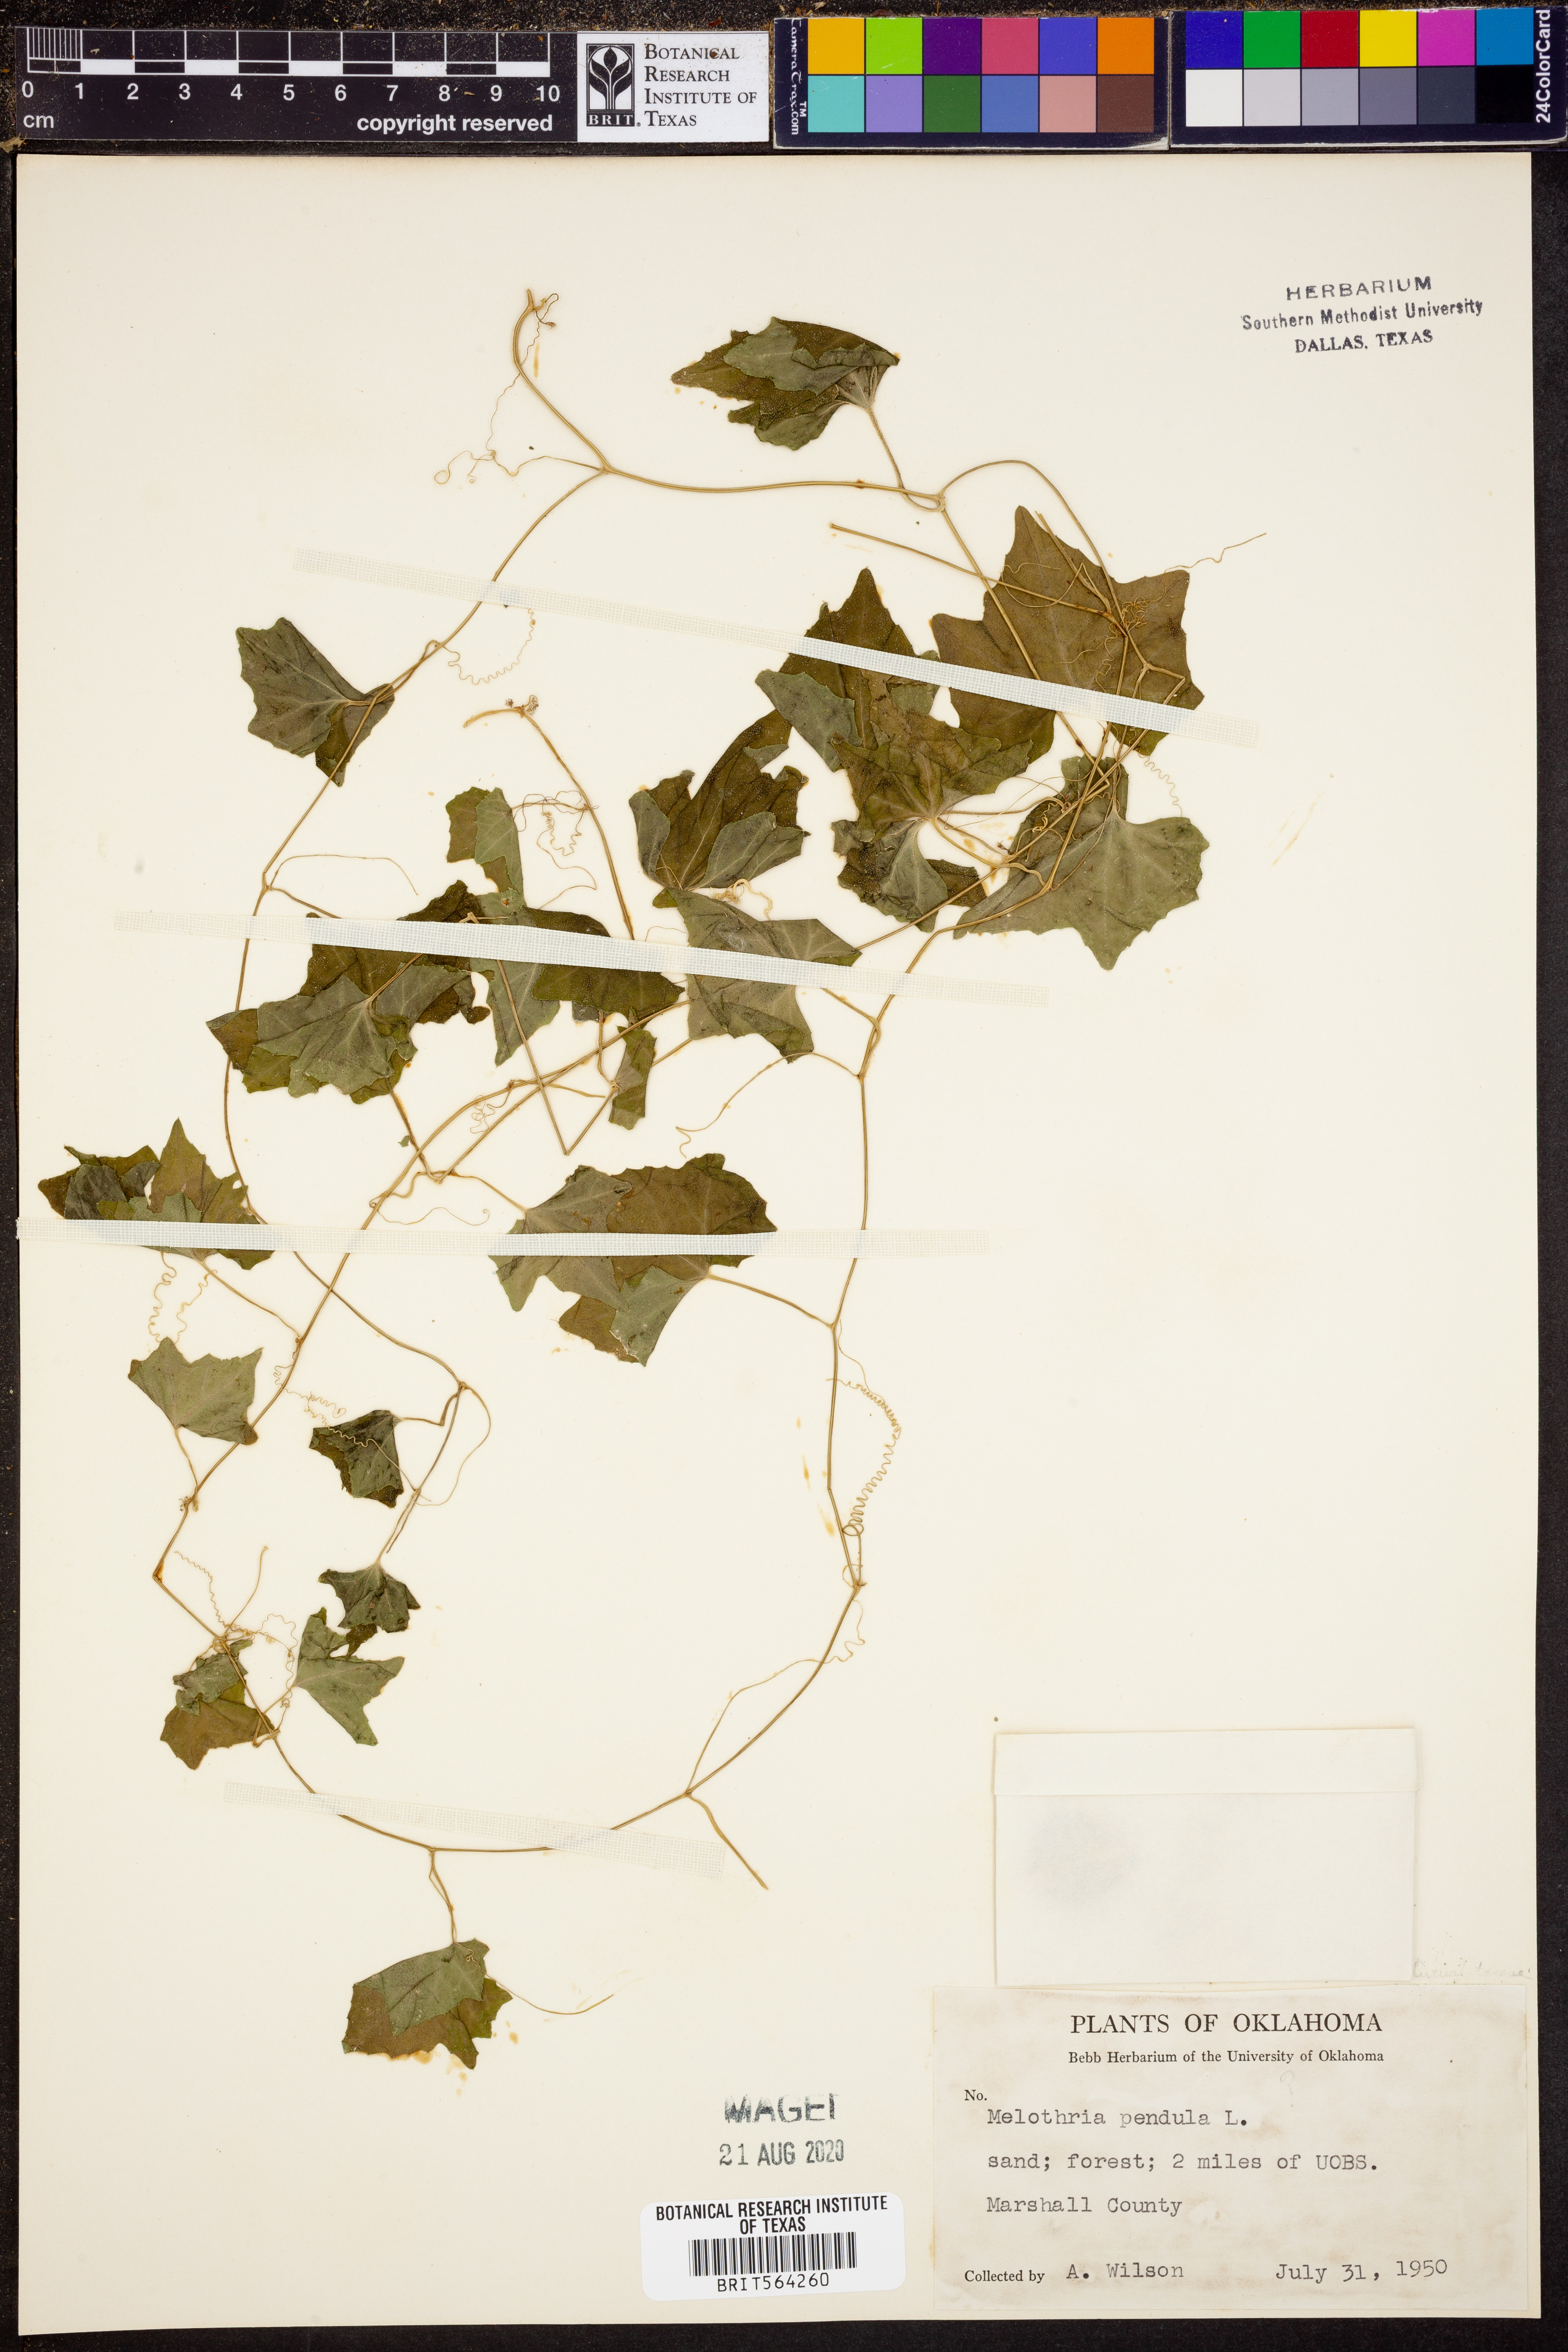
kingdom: Plantae
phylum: Tracheophyta
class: Magnoliopsida
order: Cucurbitales
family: Cucurbitaceae
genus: Melothria
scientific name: Melothria pendula
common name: Creeping-cucumber
